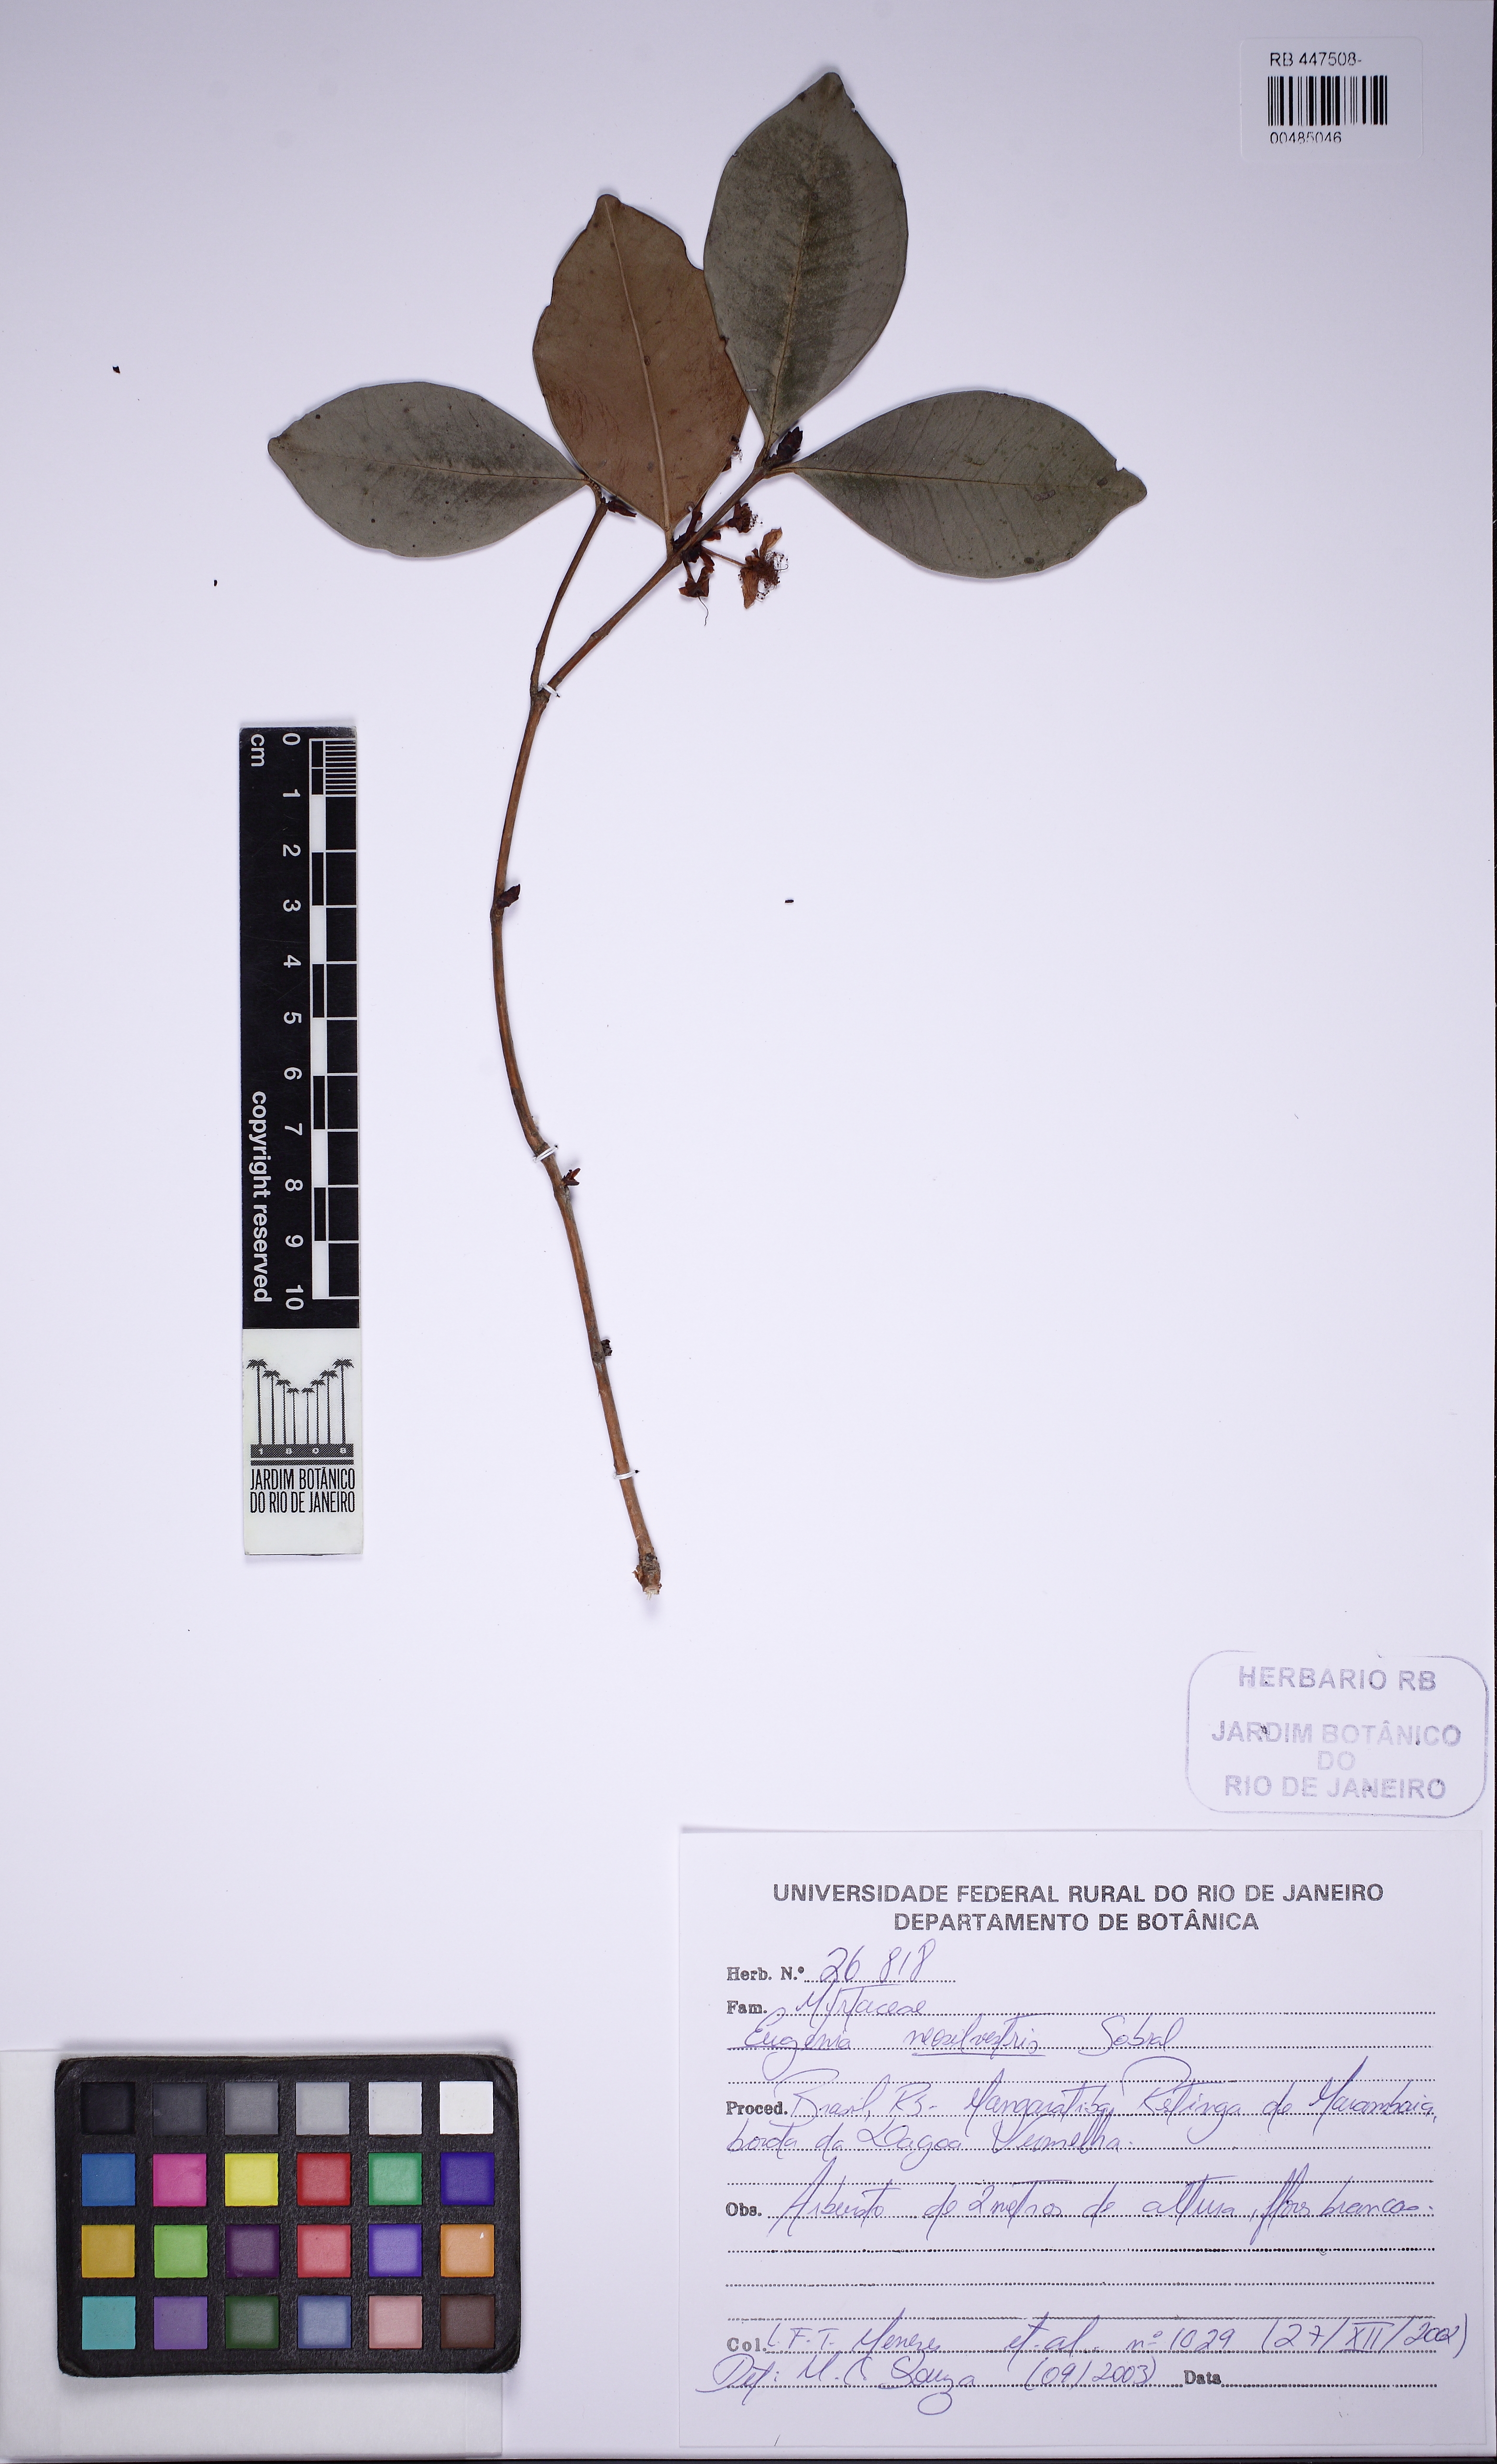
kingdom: Plantae
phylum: Tracheophyta
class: Magnoliopsida
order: Myrtales
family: Myrtaceae
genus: Eugenia
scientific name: Eugenia neosilvestris
